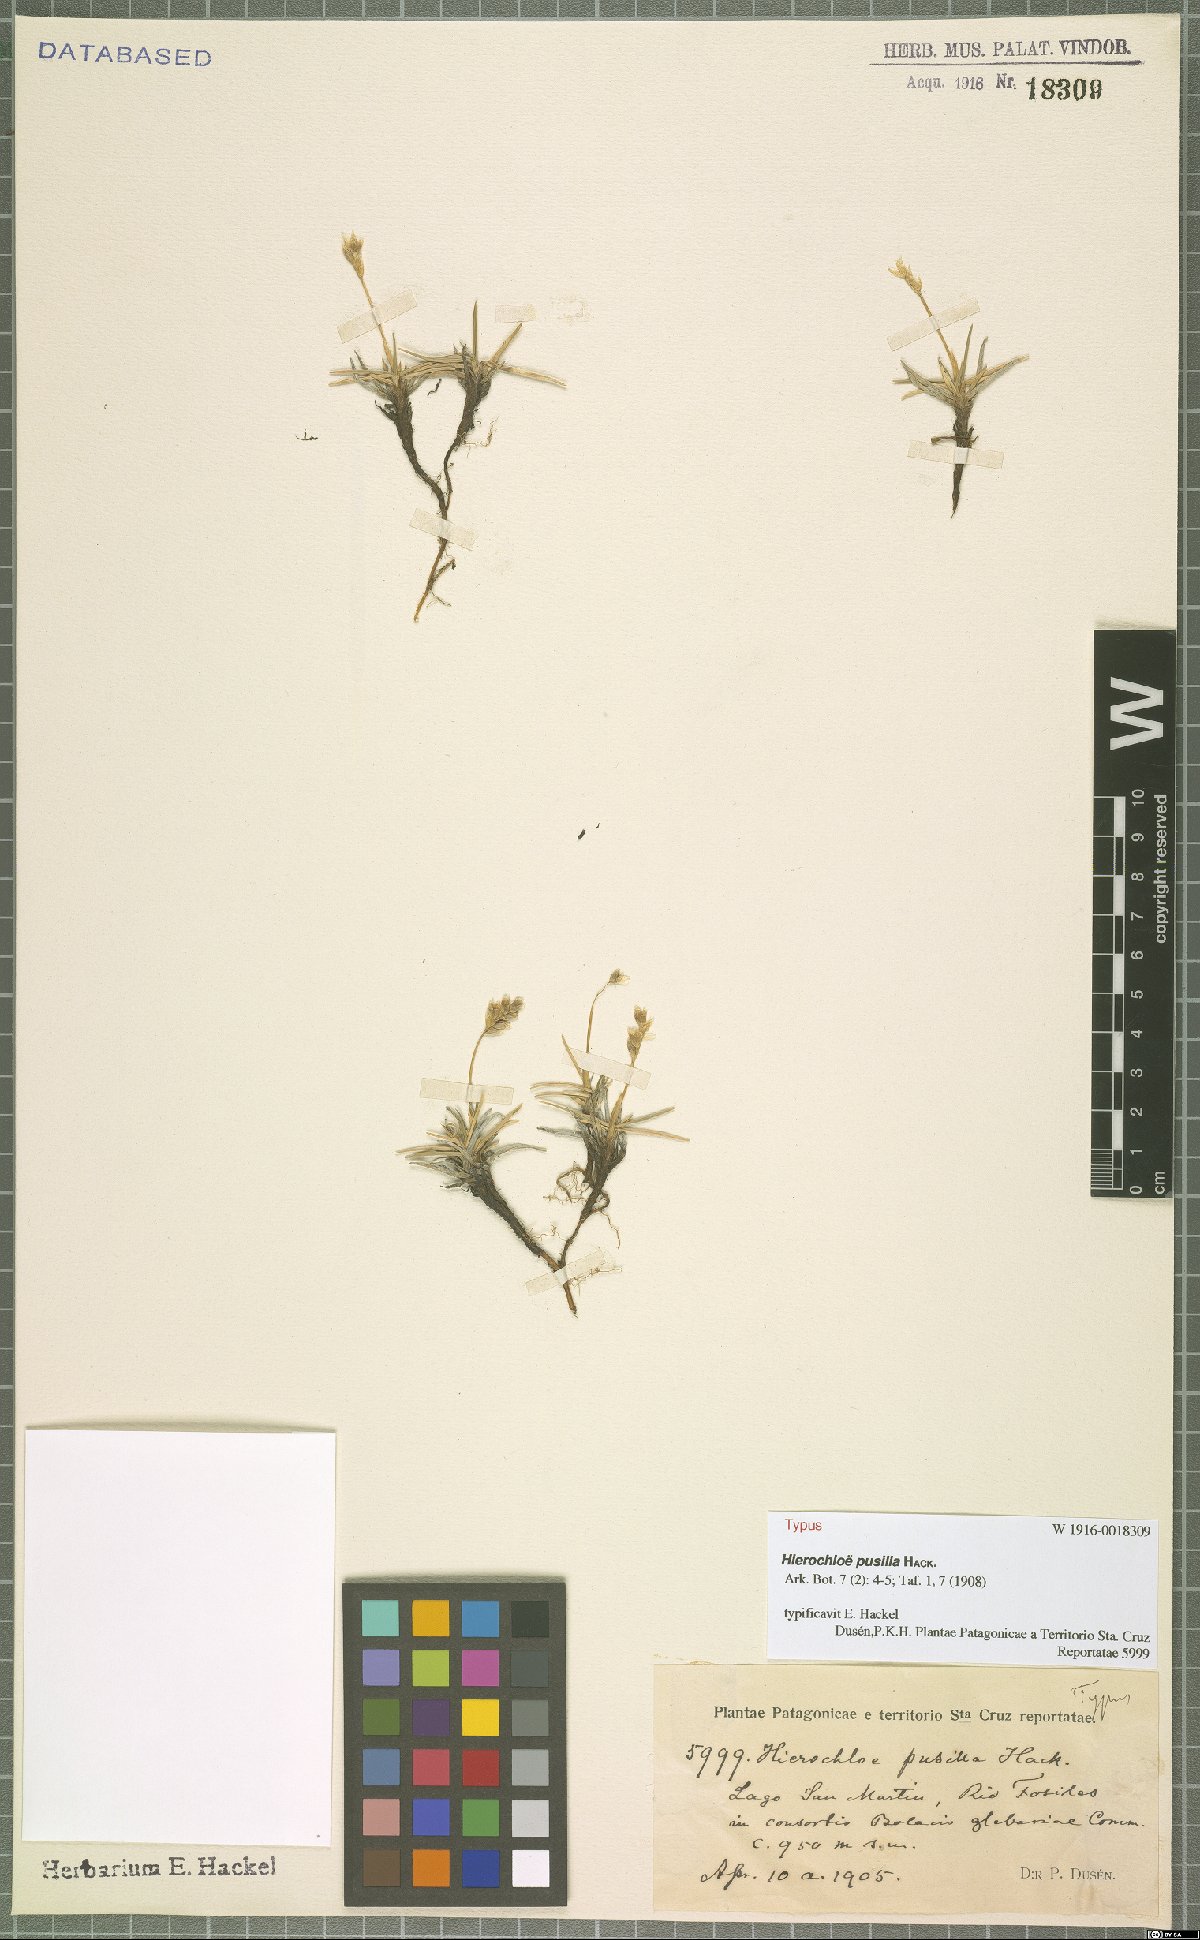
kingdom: Plantae
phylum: Tracheophyta
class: Liliopsida
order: Poales
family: Poaceae
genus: Anthoxanthum
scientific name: Anthoxanthum pusillum
